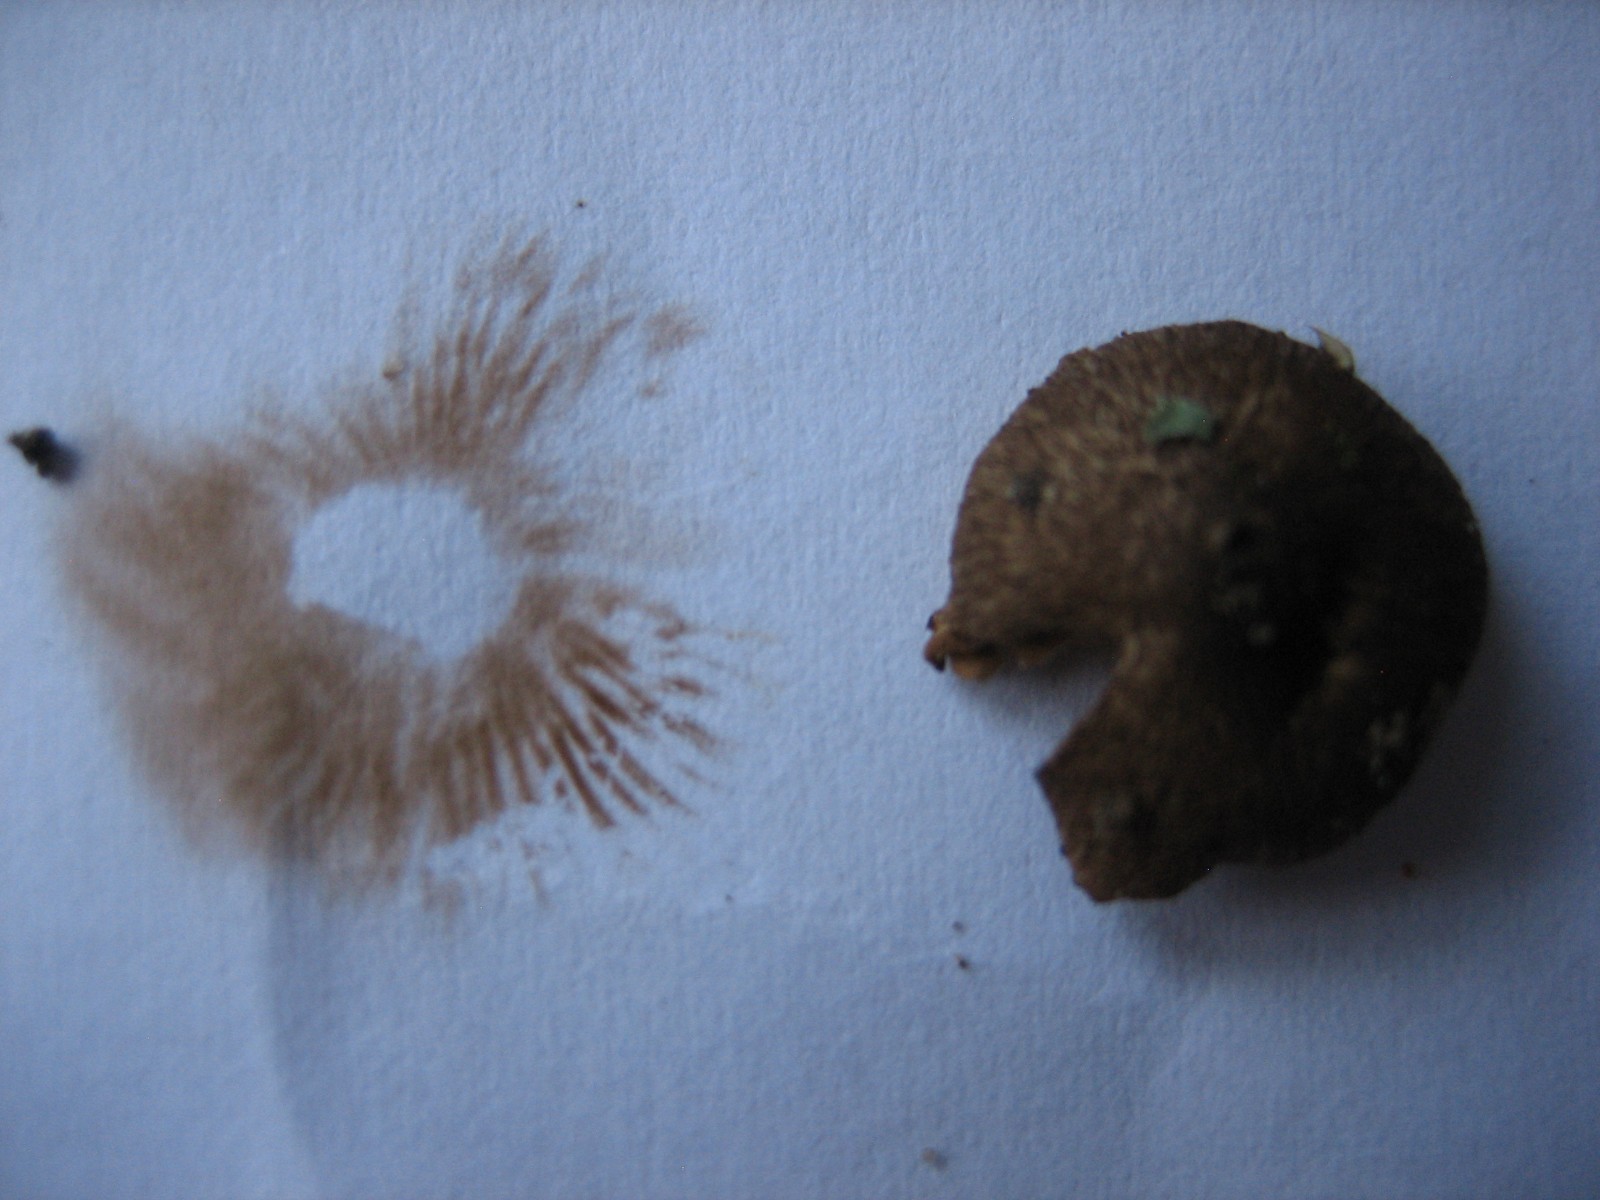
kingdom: Fungi
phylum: Basidiomycota
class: Agaricomycetes
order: Agaricales
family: Inocybaceae
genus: Inocybe
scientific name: Inocybe
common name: trævlhat
